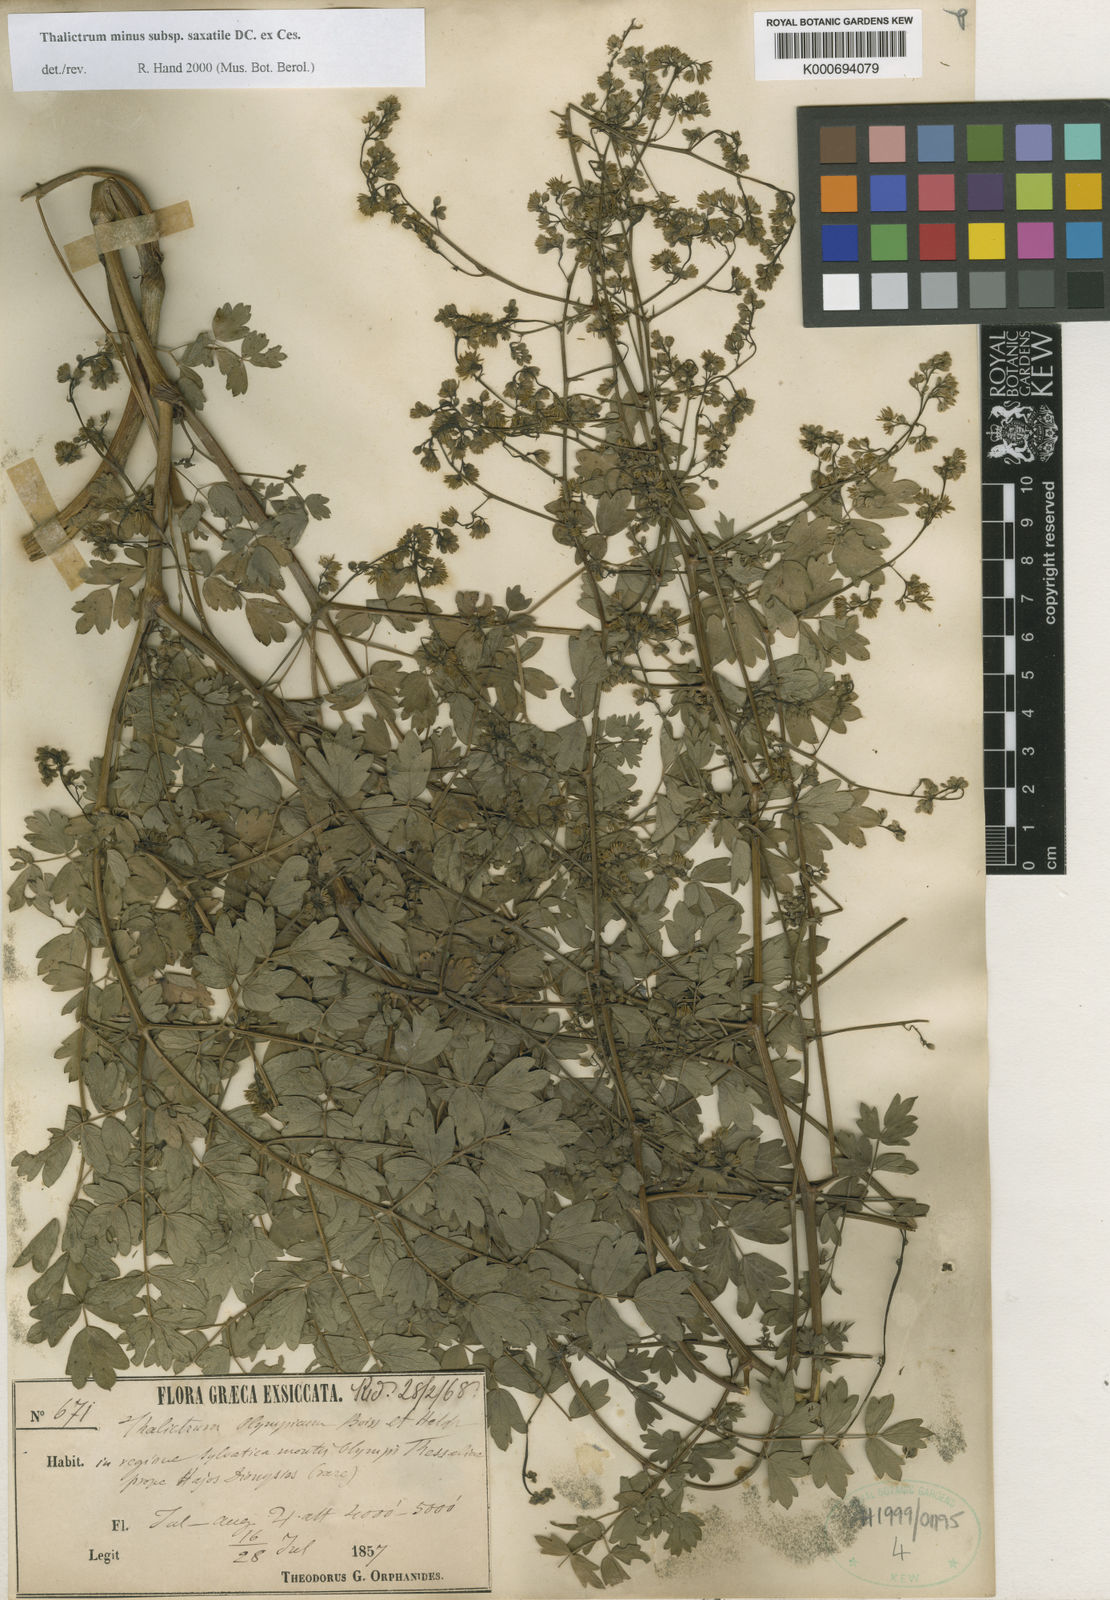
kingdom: Plantae
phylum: Tracheophyta
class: Magnoliopsida
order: Ranunculales
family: Ranunculaceae
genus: Thalictrum
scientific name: Thalictrum minus
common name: Lesser meadow-rue
